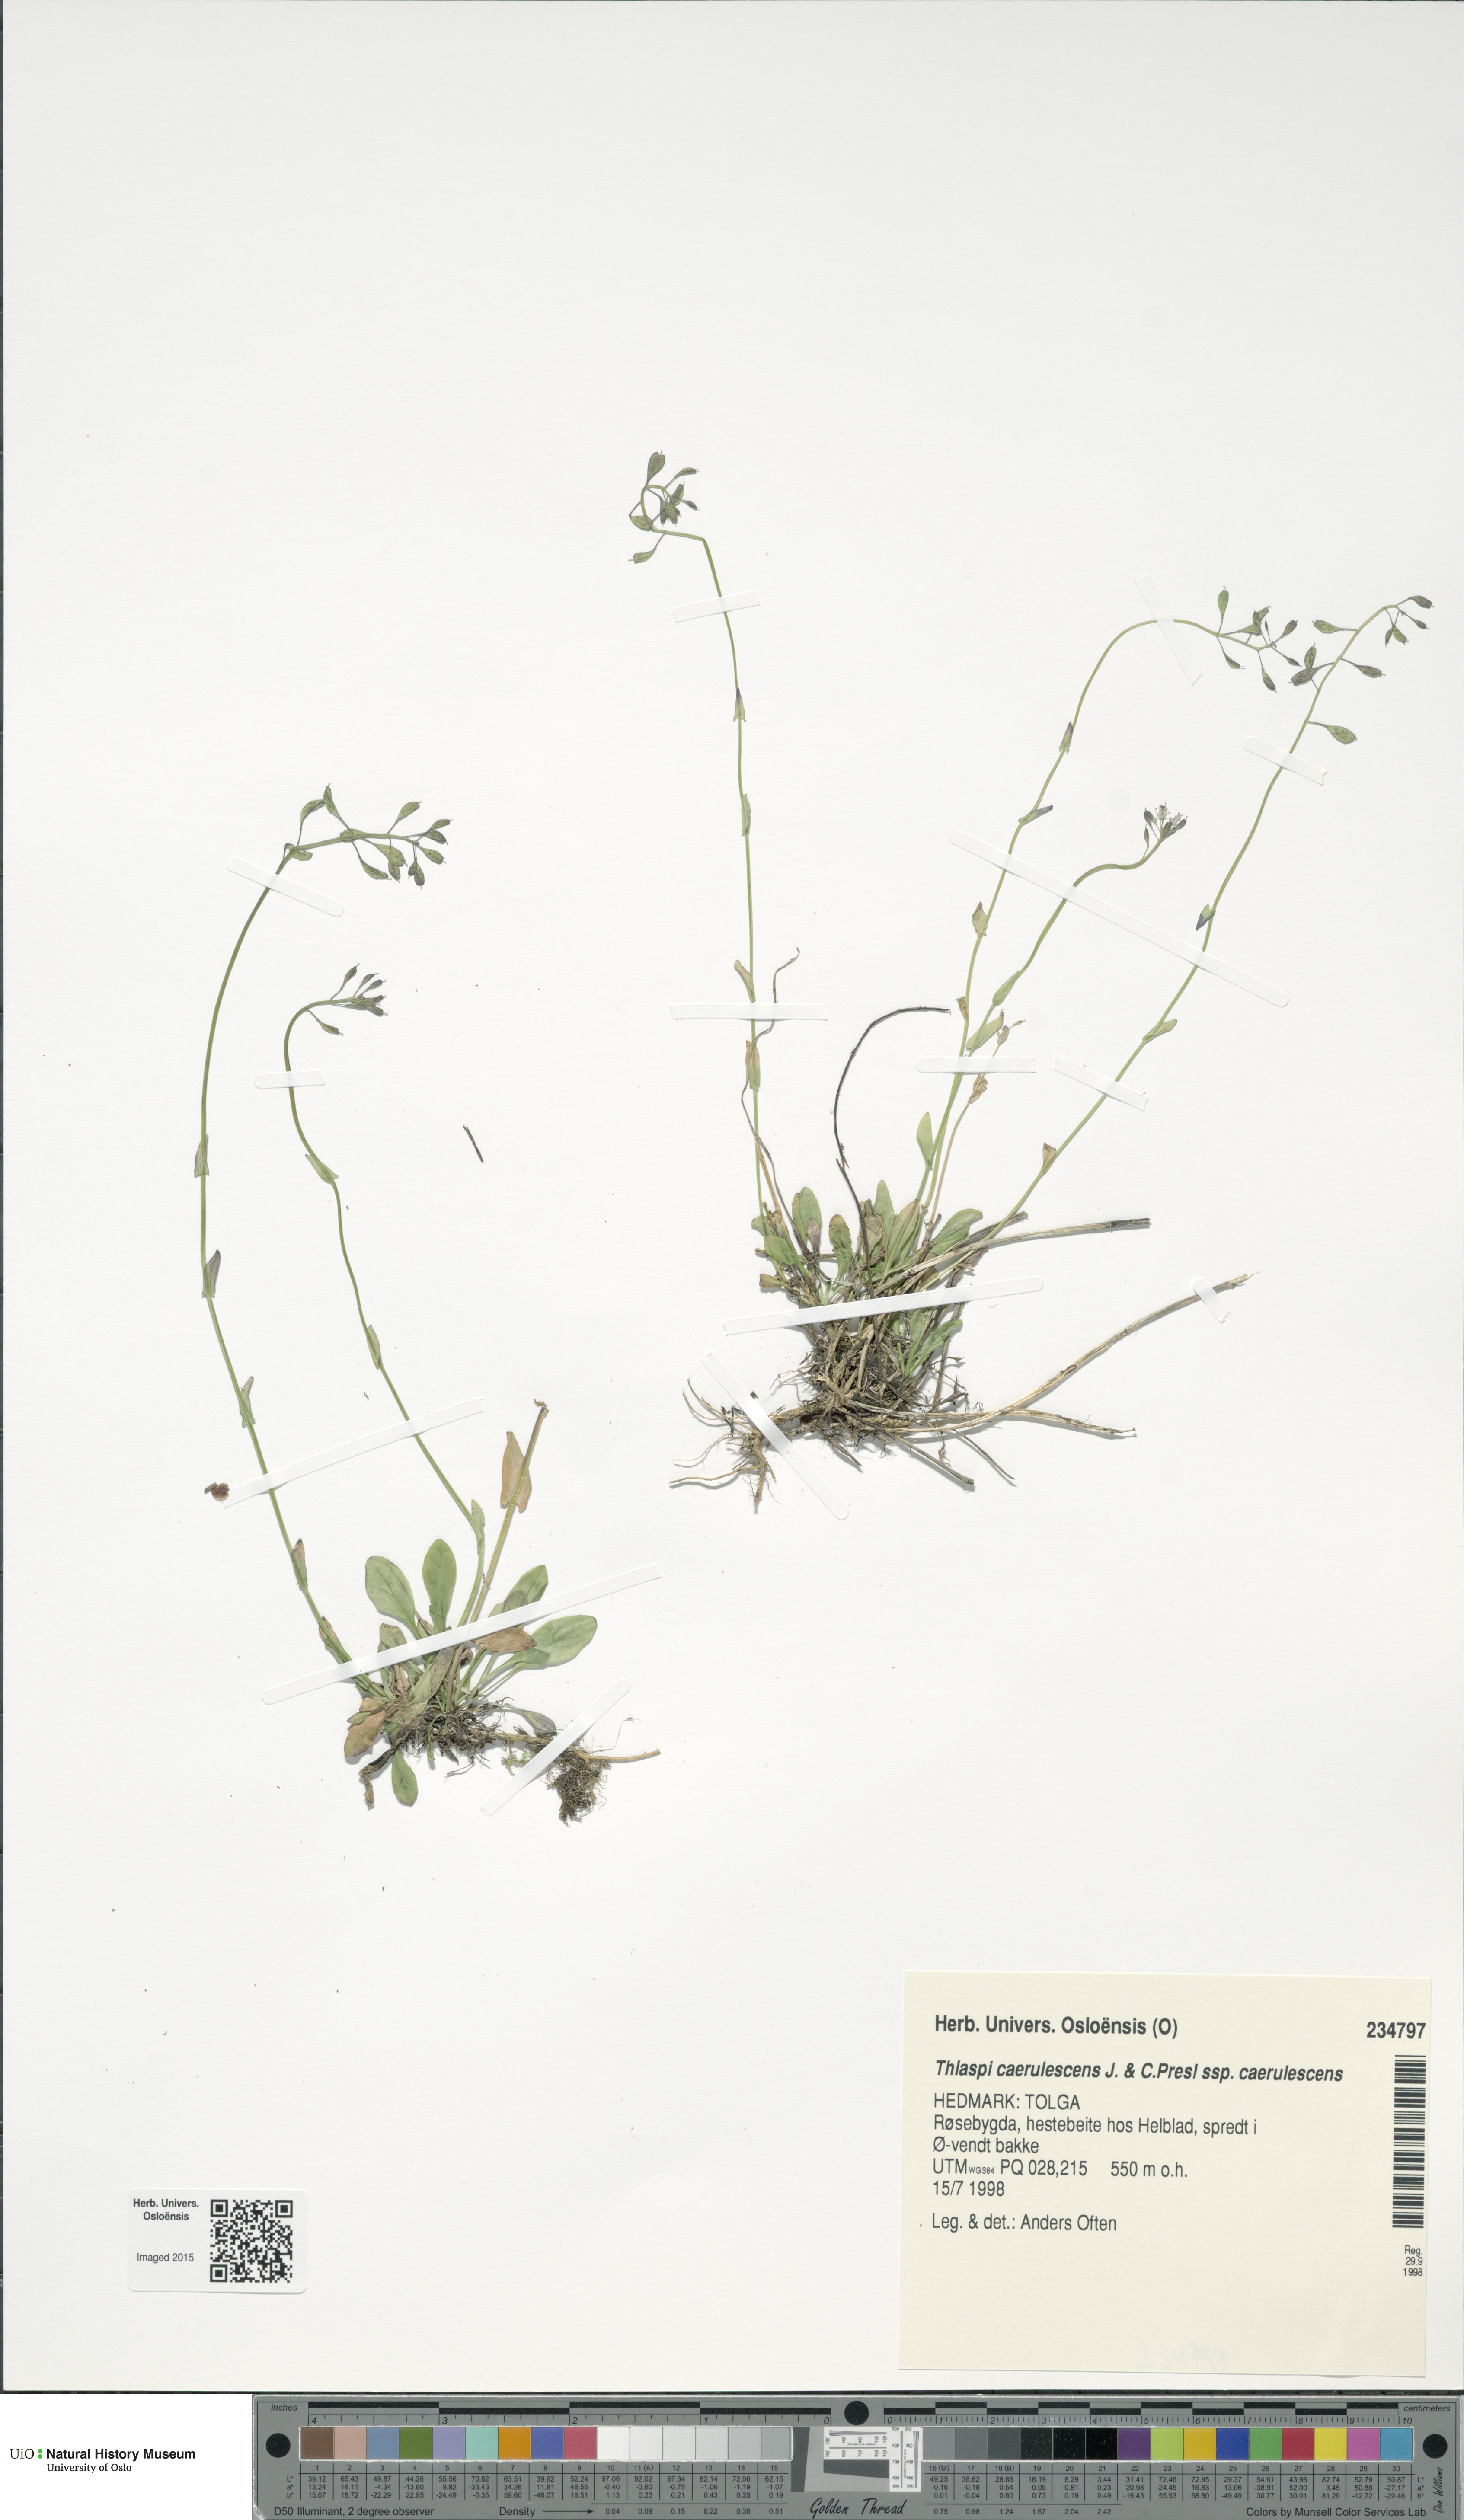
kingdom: Plantae
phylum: Tracheophyta
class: Magnoliopsida
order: Brassicales
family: Brassicaceae
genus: Noccaea
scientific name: Noccaea caerulescens
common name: Alpine pennycress
